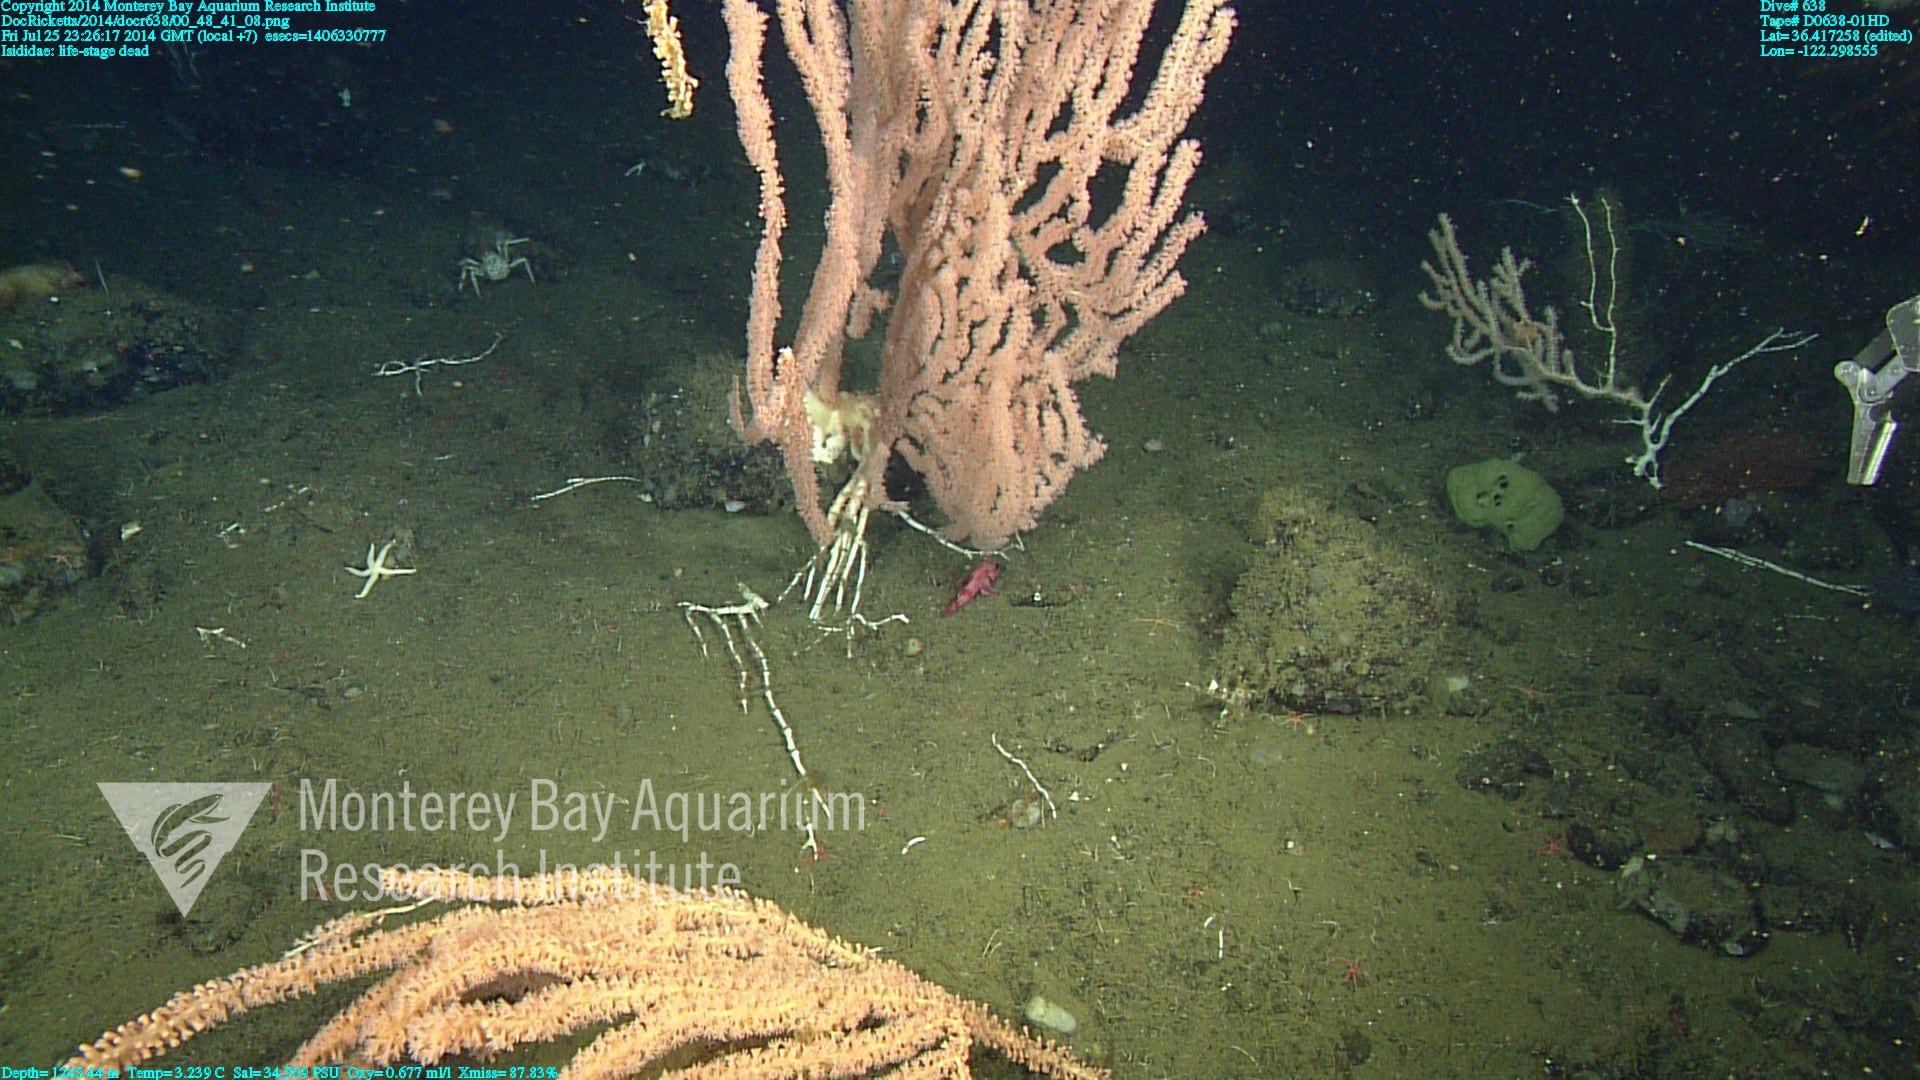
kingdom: Animalia
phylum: Cnidaria
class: Anthozoa
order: Scleralcyonacea
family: Keratoisididae
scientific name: Keratoisididae
